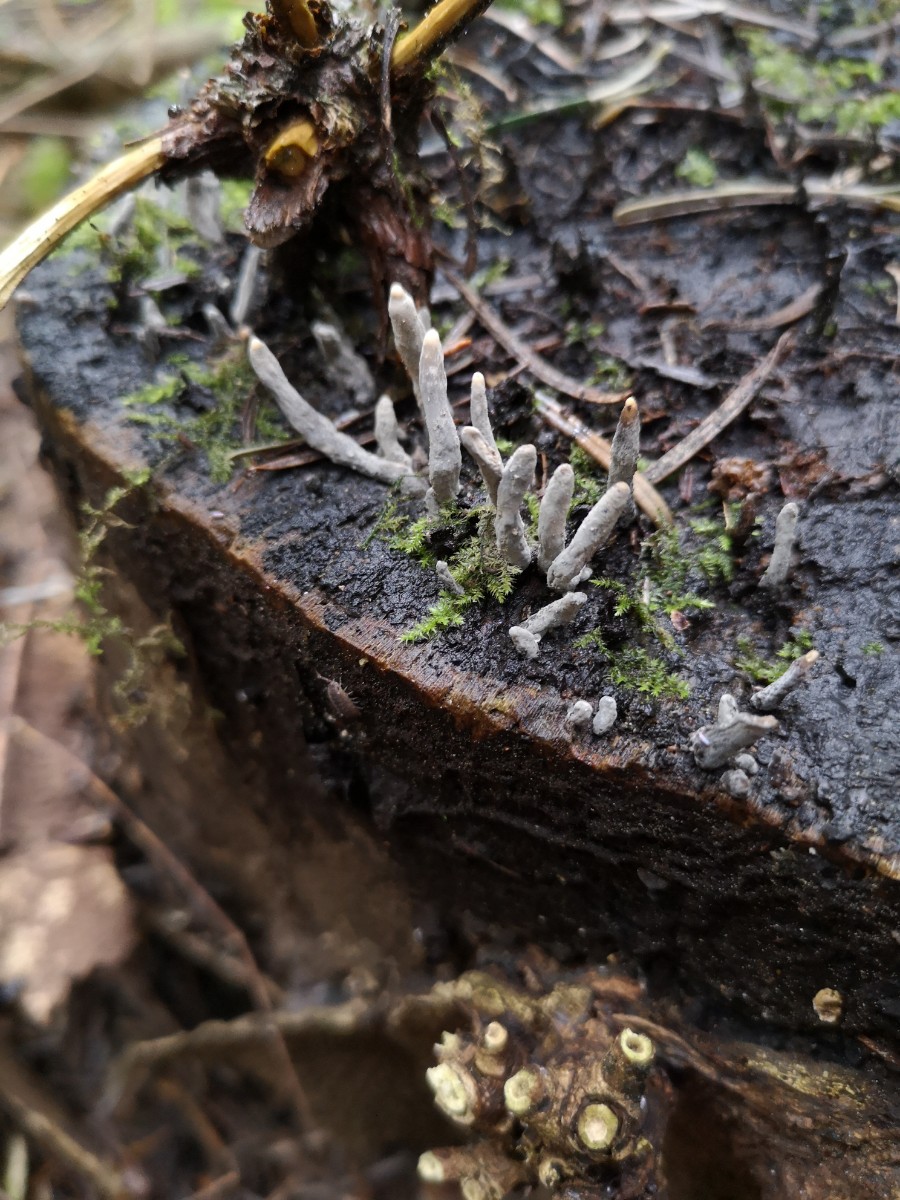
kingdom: Fungi
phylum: Ascomycota
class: Sordariomycetes
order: Xylariales
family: Xylariaceae
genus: Xylaria
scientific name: Xylaria hypoxylon
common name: grenet stødsvamp
